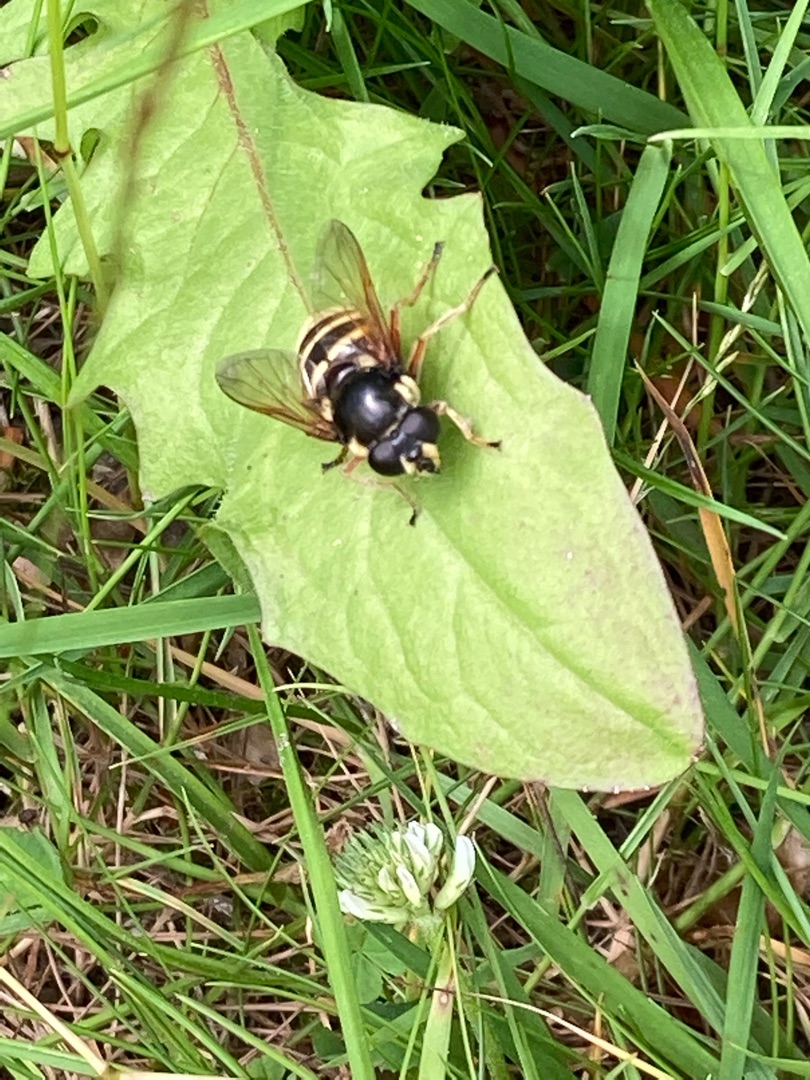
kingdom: Animalia
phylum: Arthropoda
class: Insecta
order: Diptera
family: Syrphidae
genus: Sericomyia
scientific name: Sericomyia silentis
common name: Tørve-silkesvirreflue
